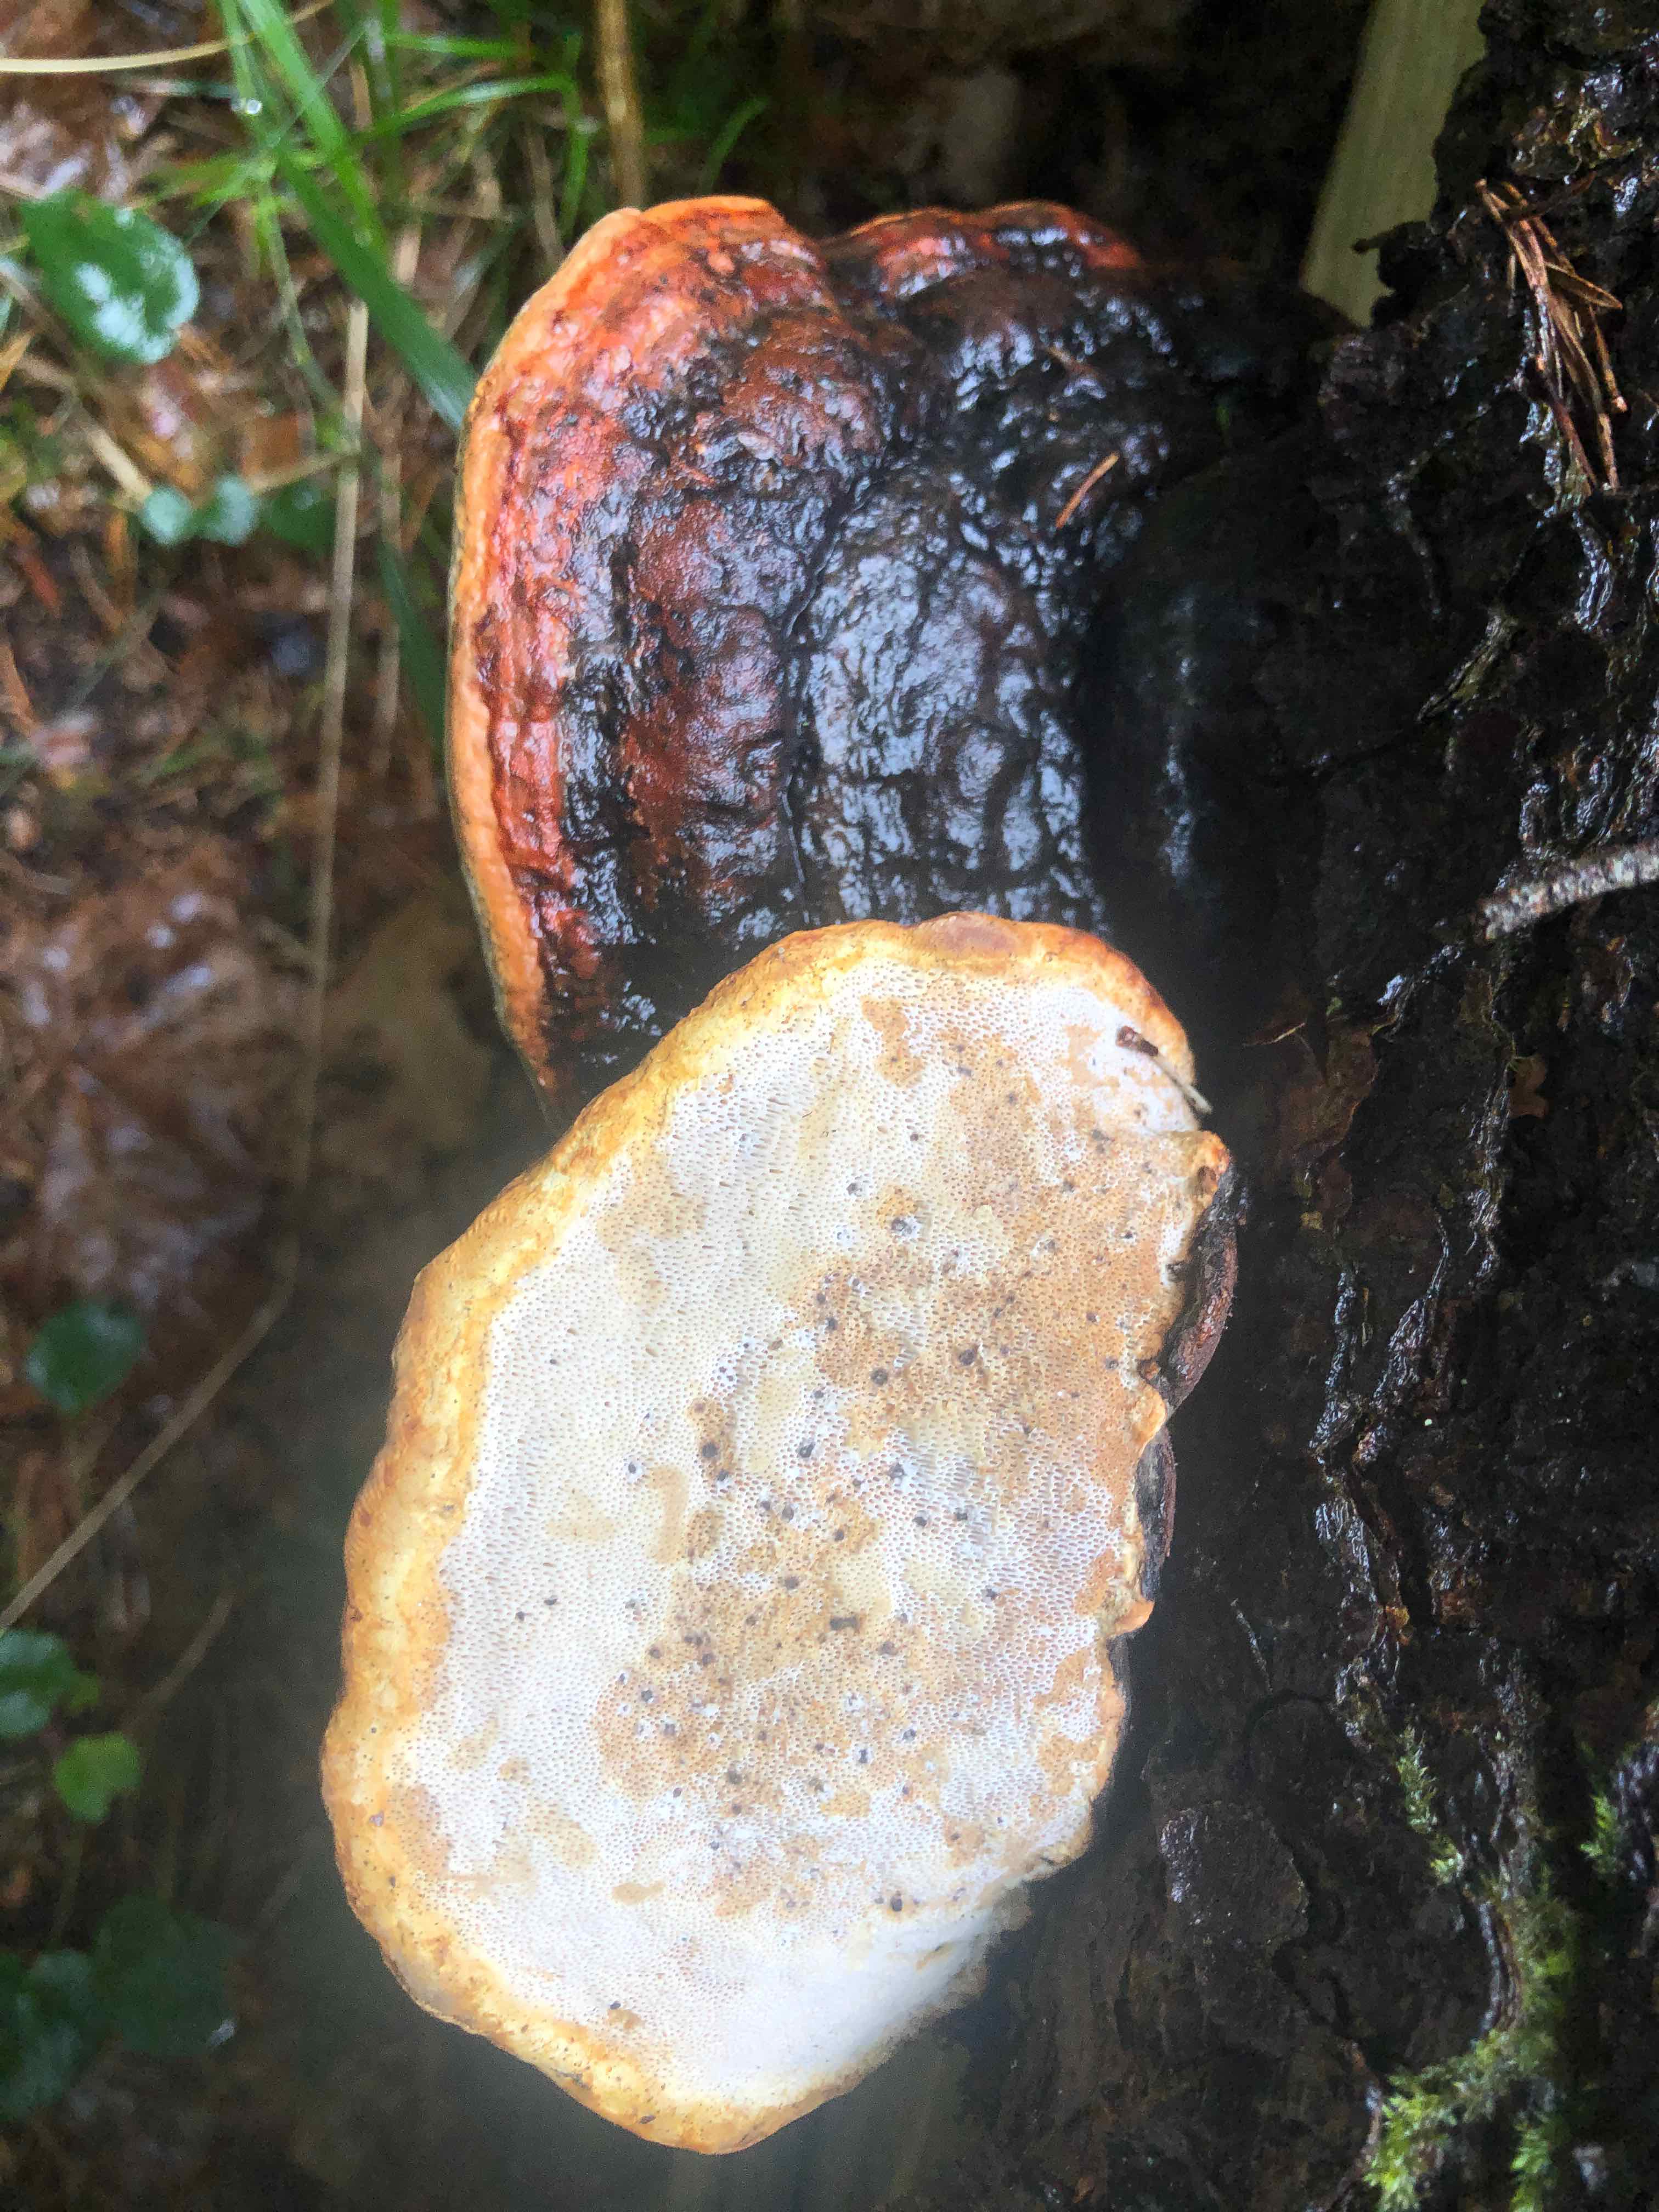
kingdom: Fungi
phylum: Basidiomycota
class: Agaricomycetes
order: Polyporales
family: Fomitopsidaceae
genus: Fomitopsis
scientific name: Fomitopsis pinicola
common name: randbæltet hovporesvamp
